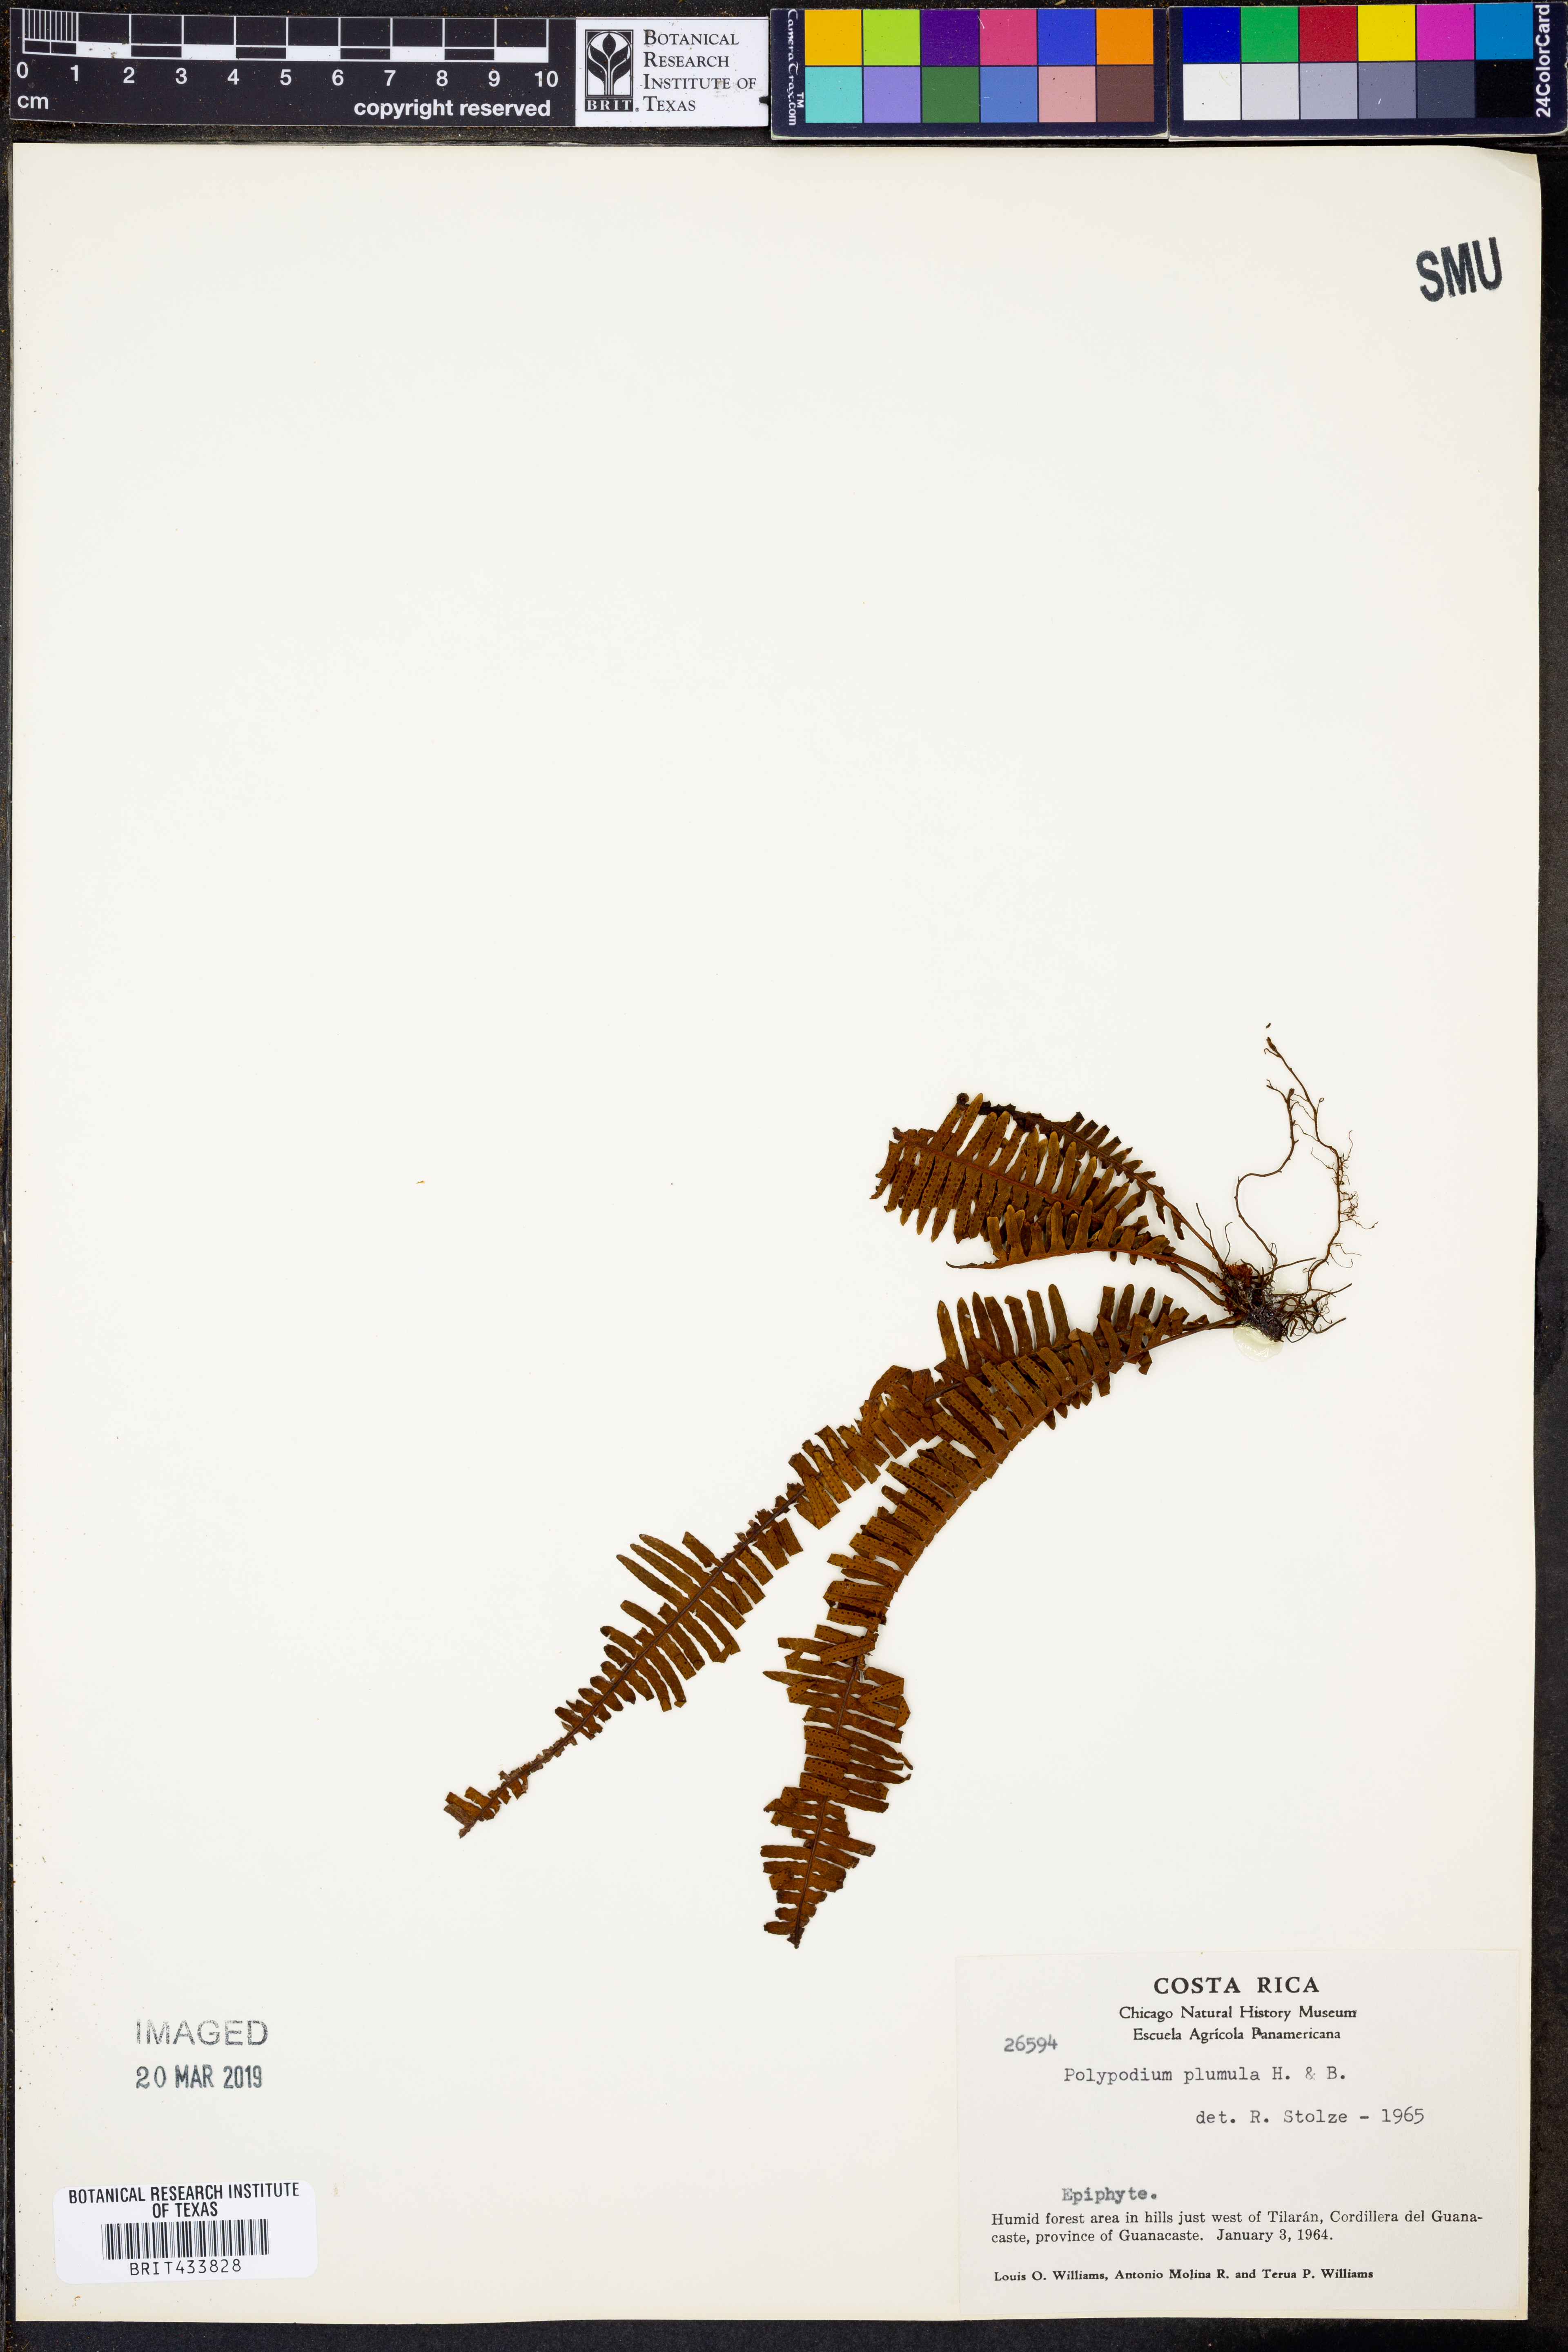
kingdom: Plantae
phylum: Tracheophyta
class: Polypodiopsida
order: Polypodiales
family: Polypodiaceae
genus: Pecluma
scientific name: Pecluma plumula
